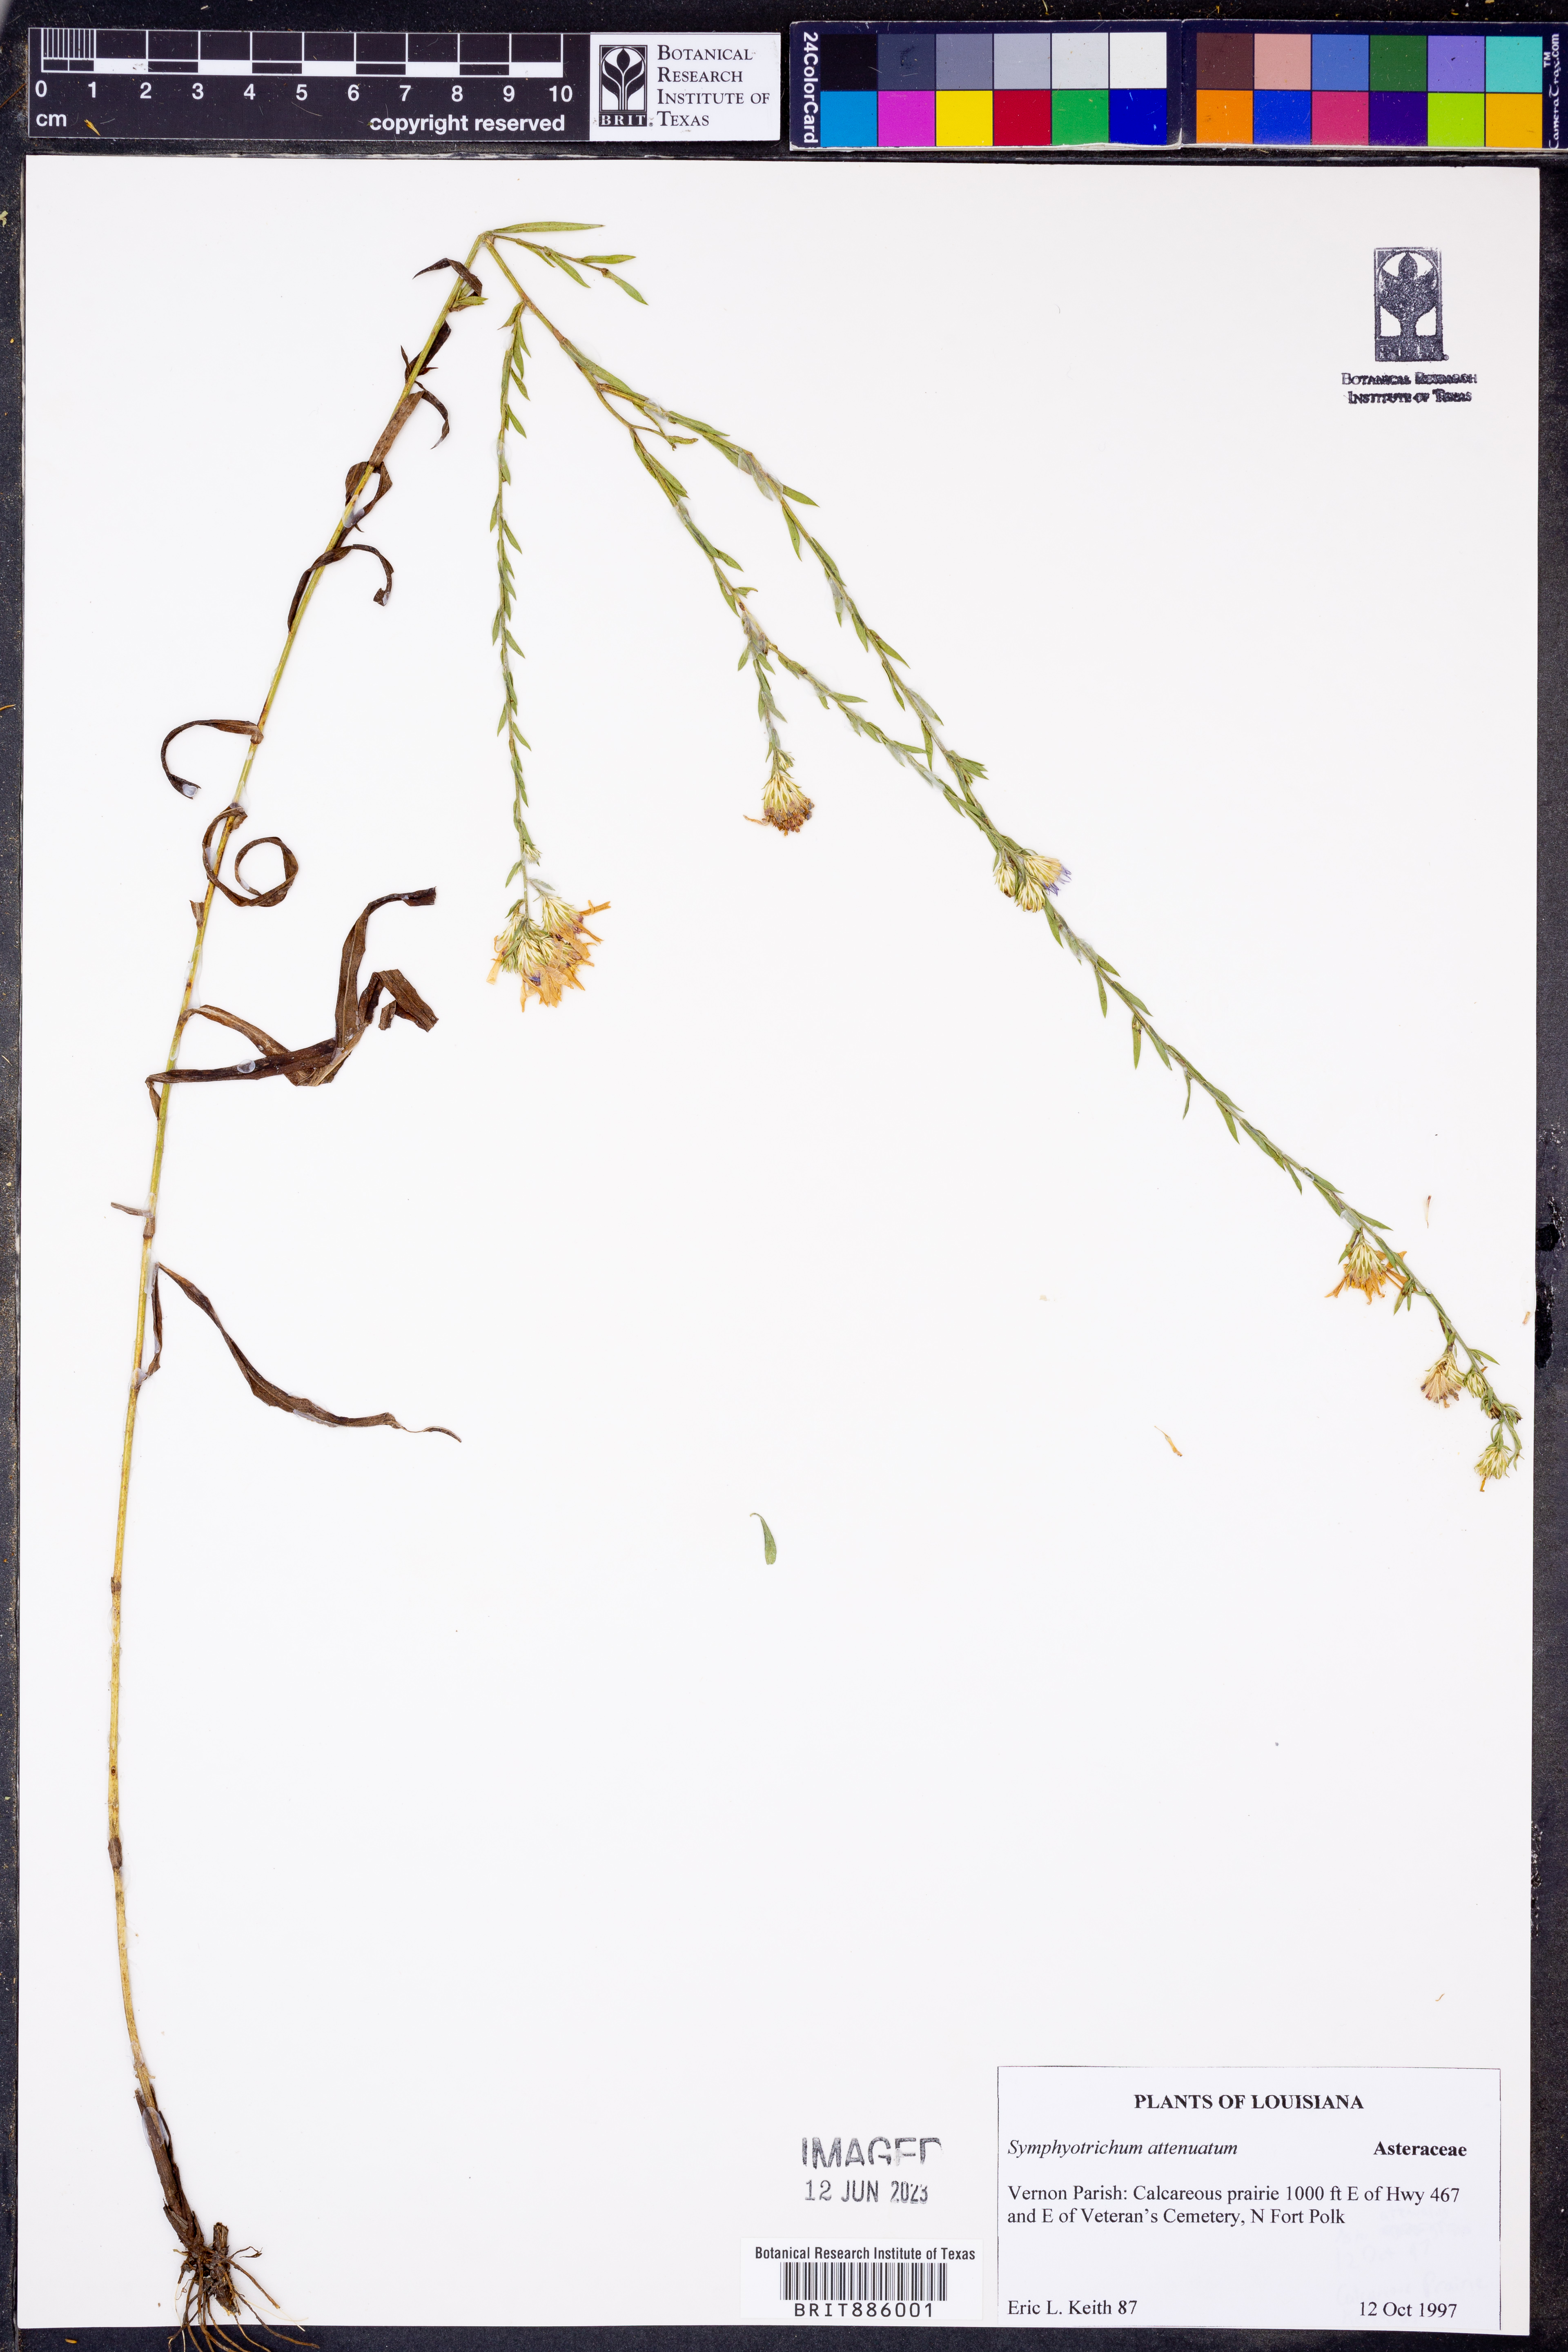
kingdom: Plantae
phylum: Tracheophyta
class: Magnoliopsida
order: Asterales
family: Asteraceae
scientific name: Asteraceae
